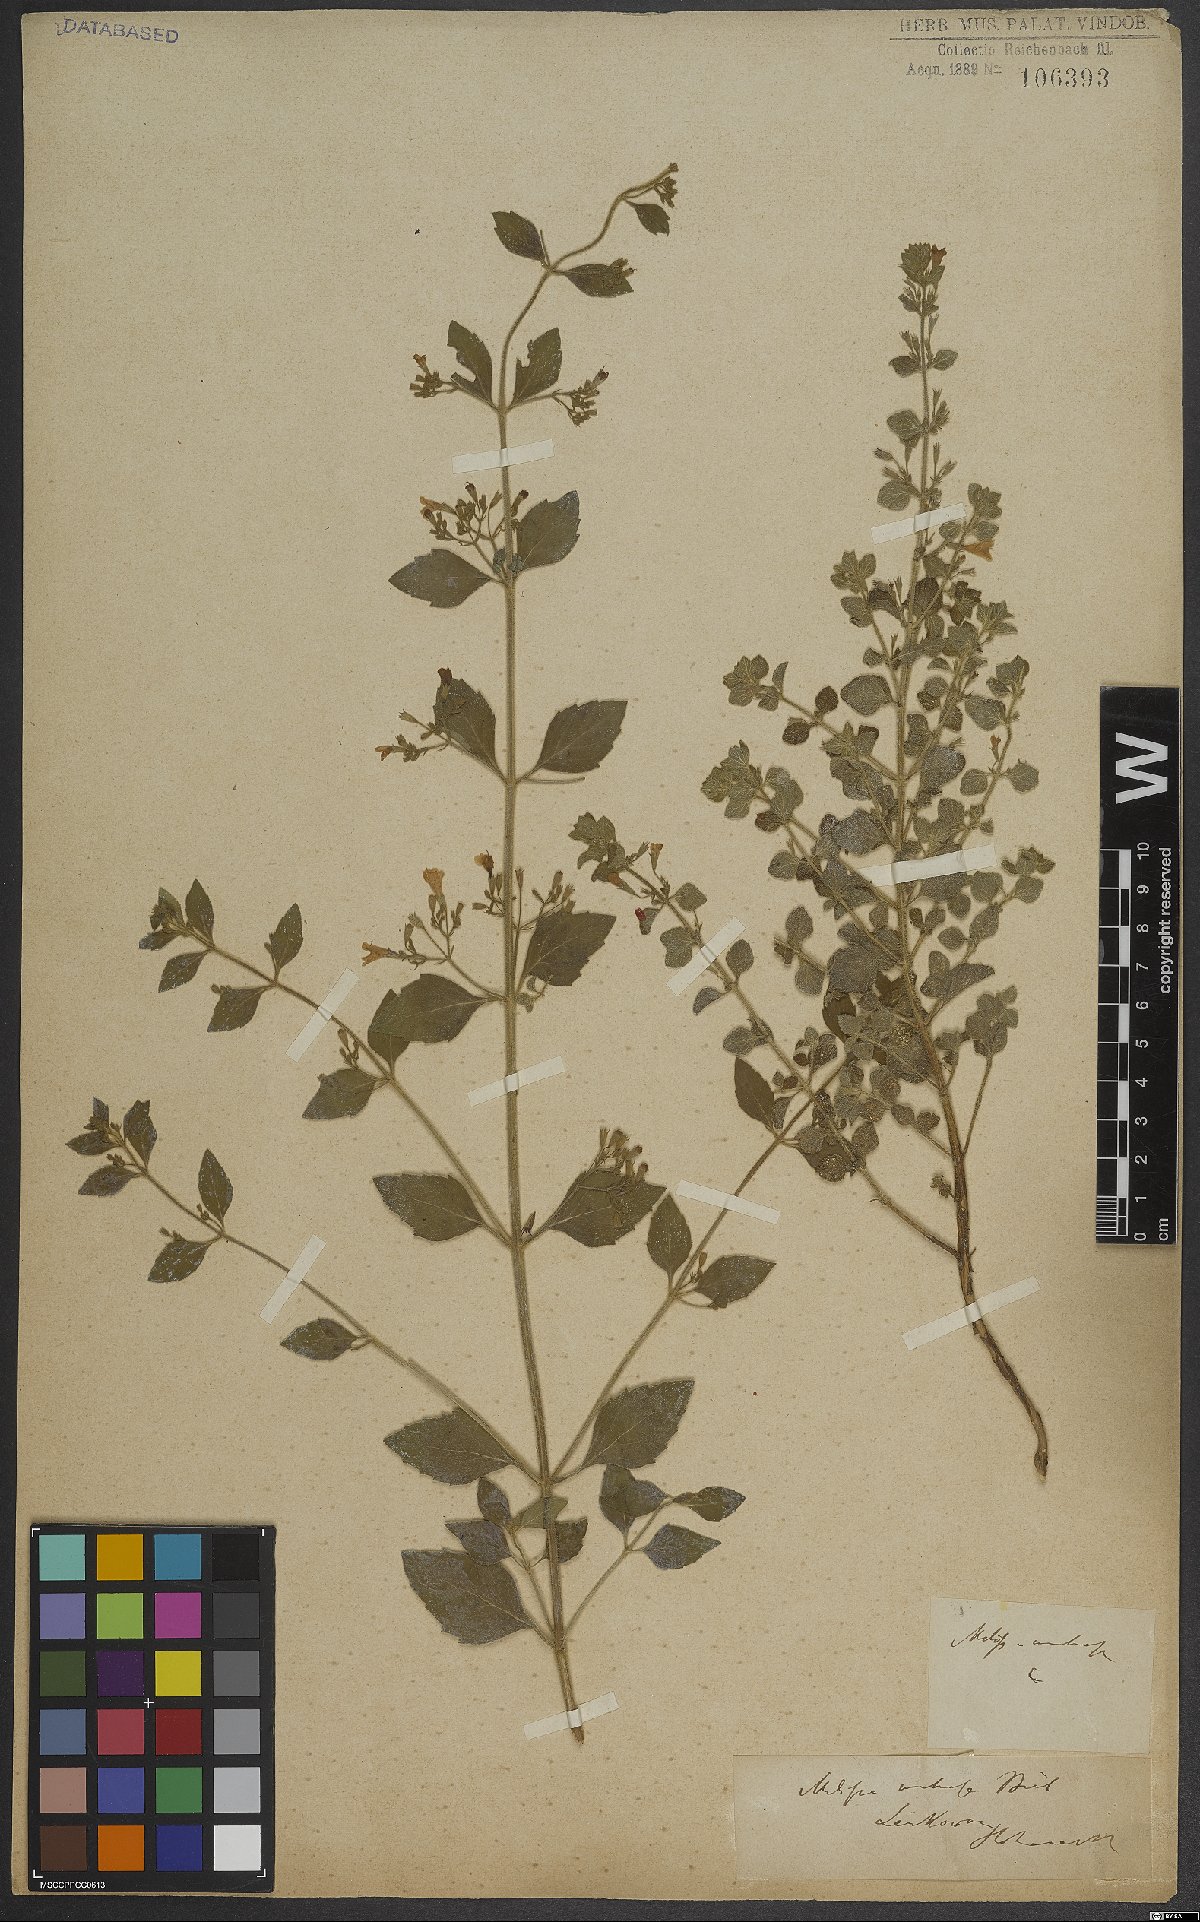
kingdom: Plantae
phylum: Tracheophyta
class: Magnoliopsida
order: Lamiales
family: Lamiaceae
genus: Calamintha
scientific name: Calamintha
